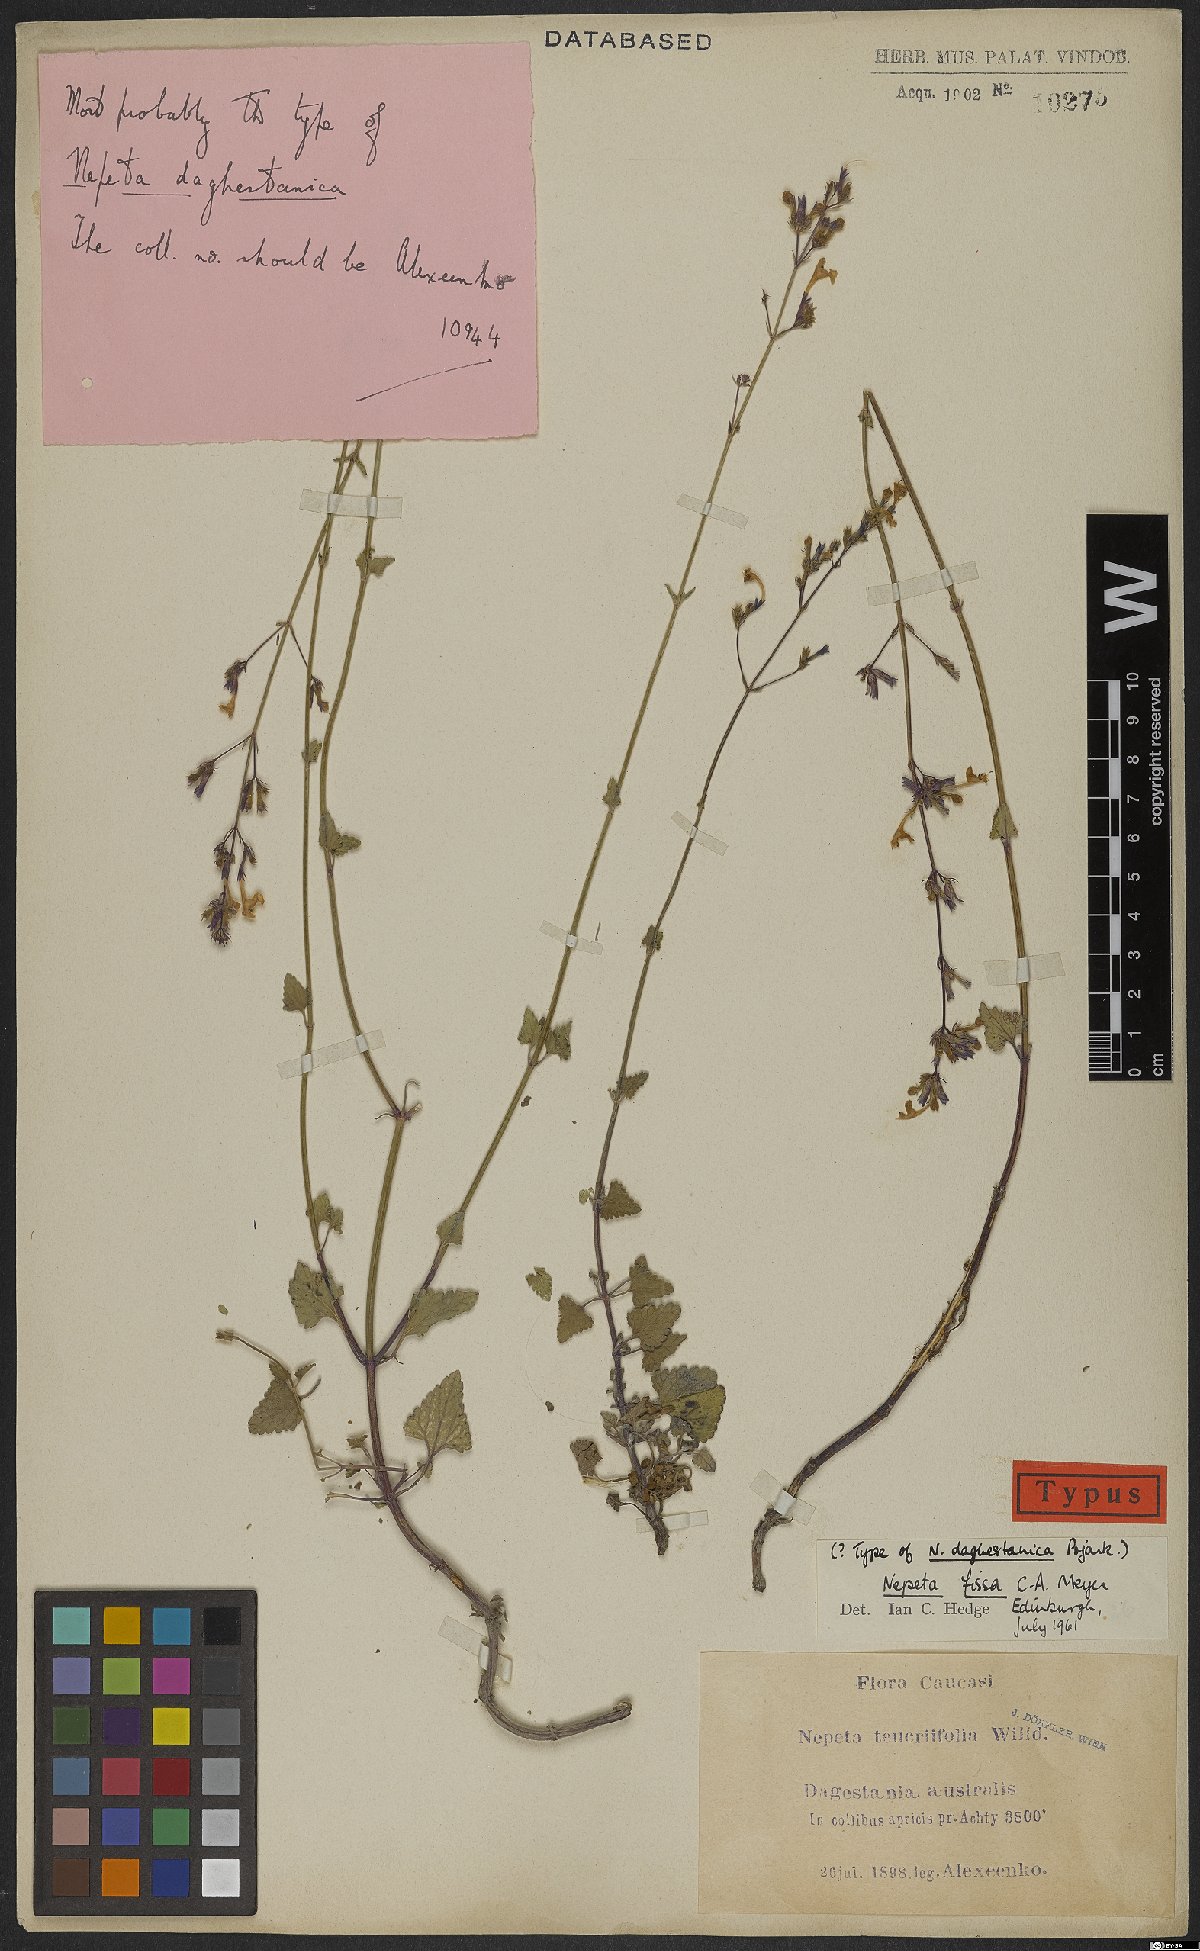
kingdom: Plantae
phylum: Tracheophyta
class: Magnoliopsida
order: Lamiales
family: Lamiaceae
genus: Nepeta
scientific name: Nepeta teucriifolia
